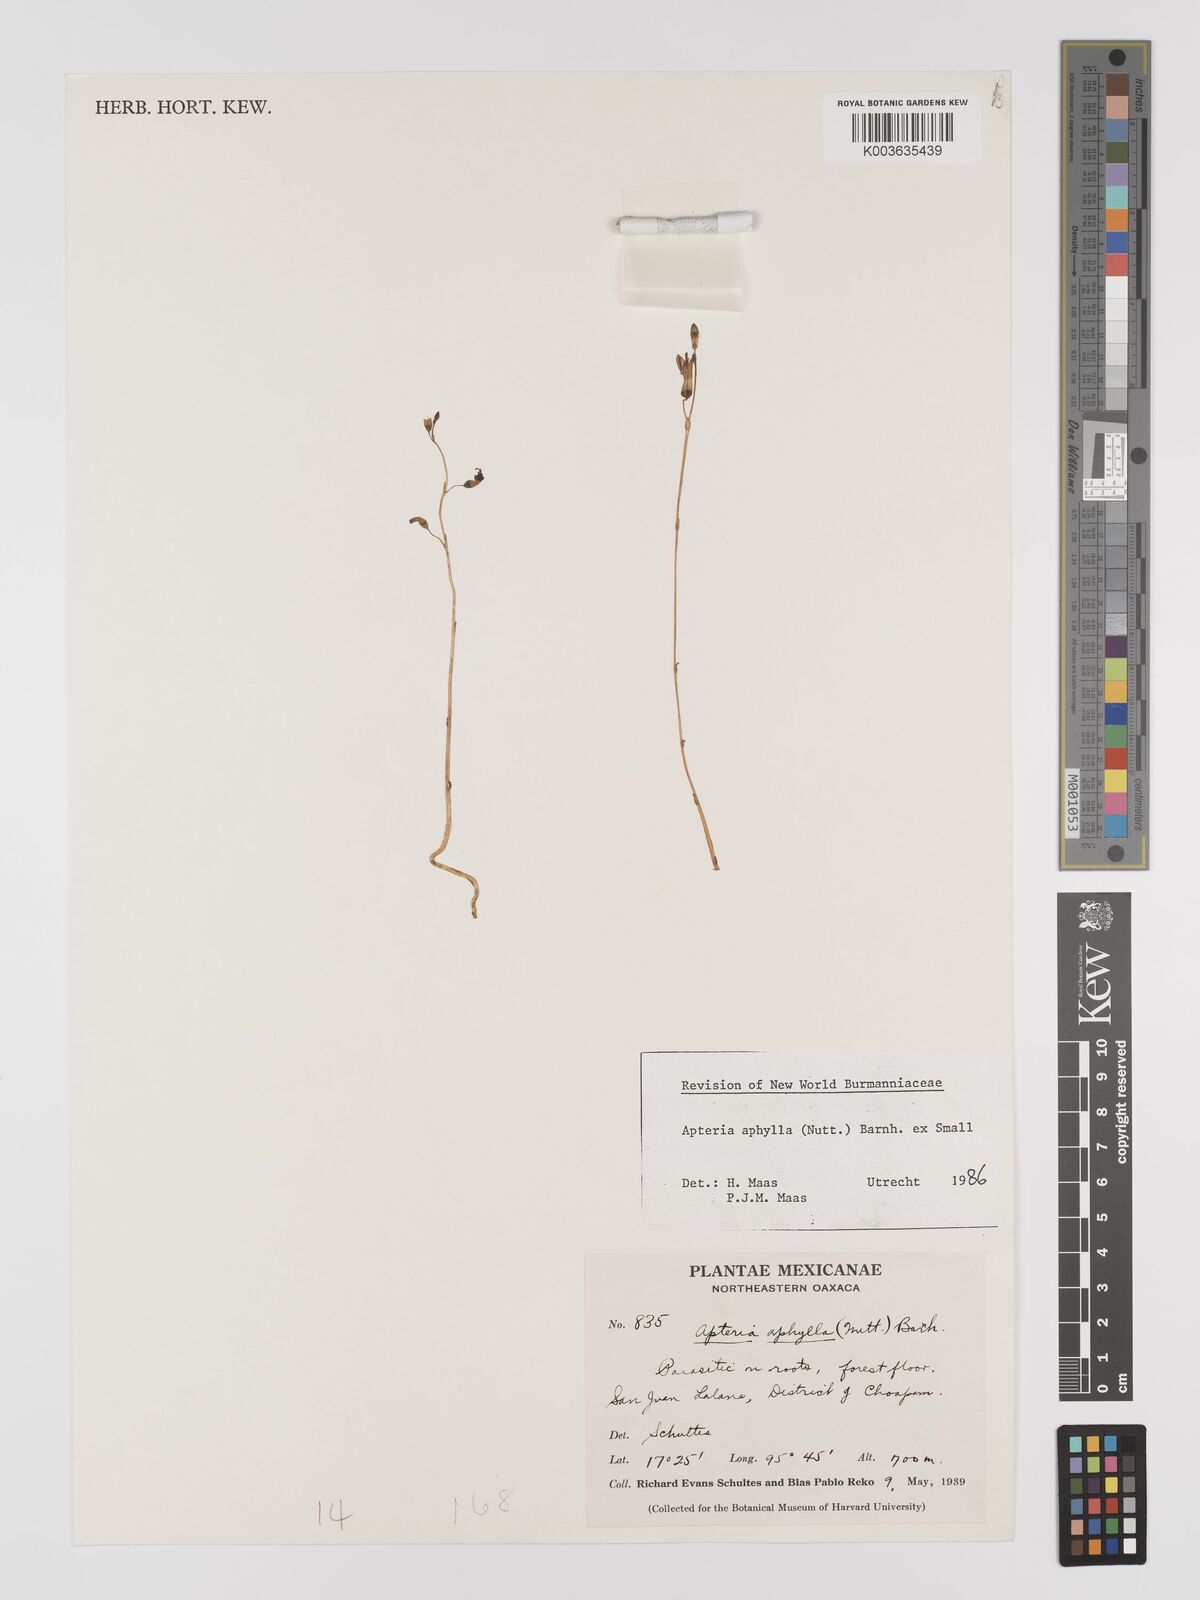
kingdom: Plantae
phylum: Tracheophyta
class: Liliopsida
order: Dioscoreales
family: Burmanniaceae
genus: Apteria
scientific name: Apteria aphylla
